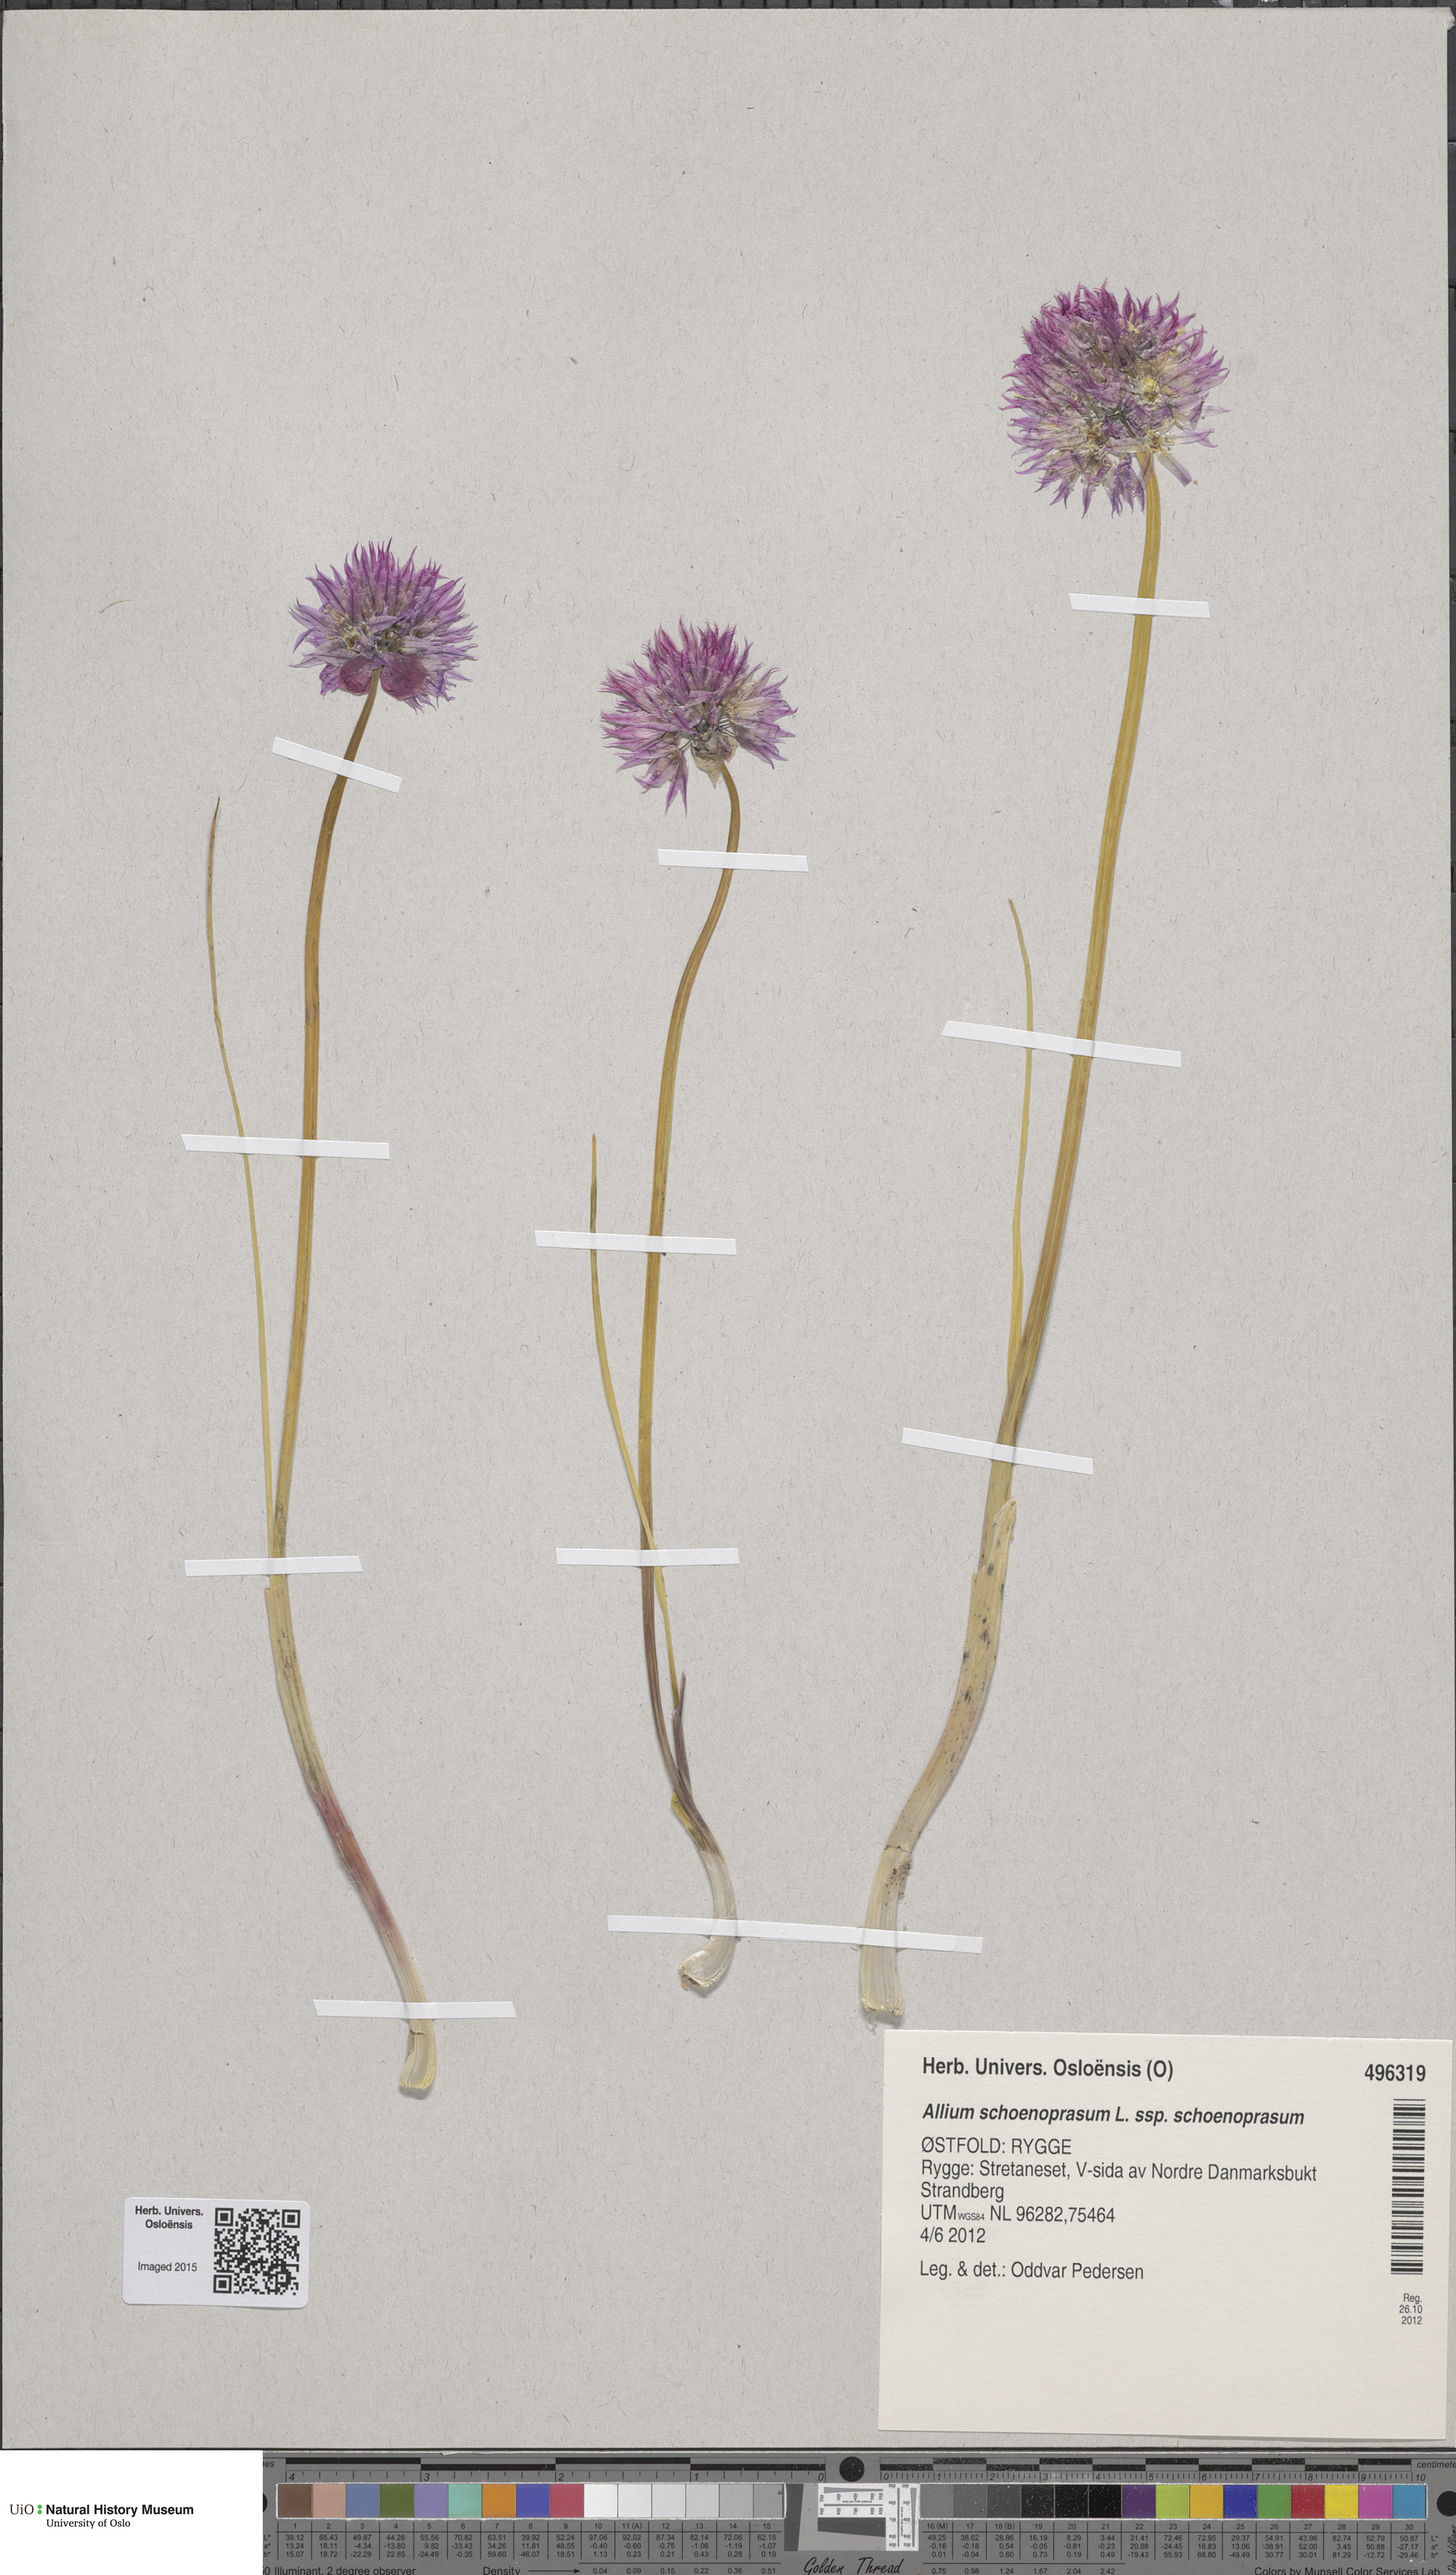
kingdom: Plantae
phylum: Tracheophyta
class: Liliopsida
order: Asparagales
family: Amaryllidaceae
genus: Allium
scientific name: Allium schoenoprasum
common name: Chives
